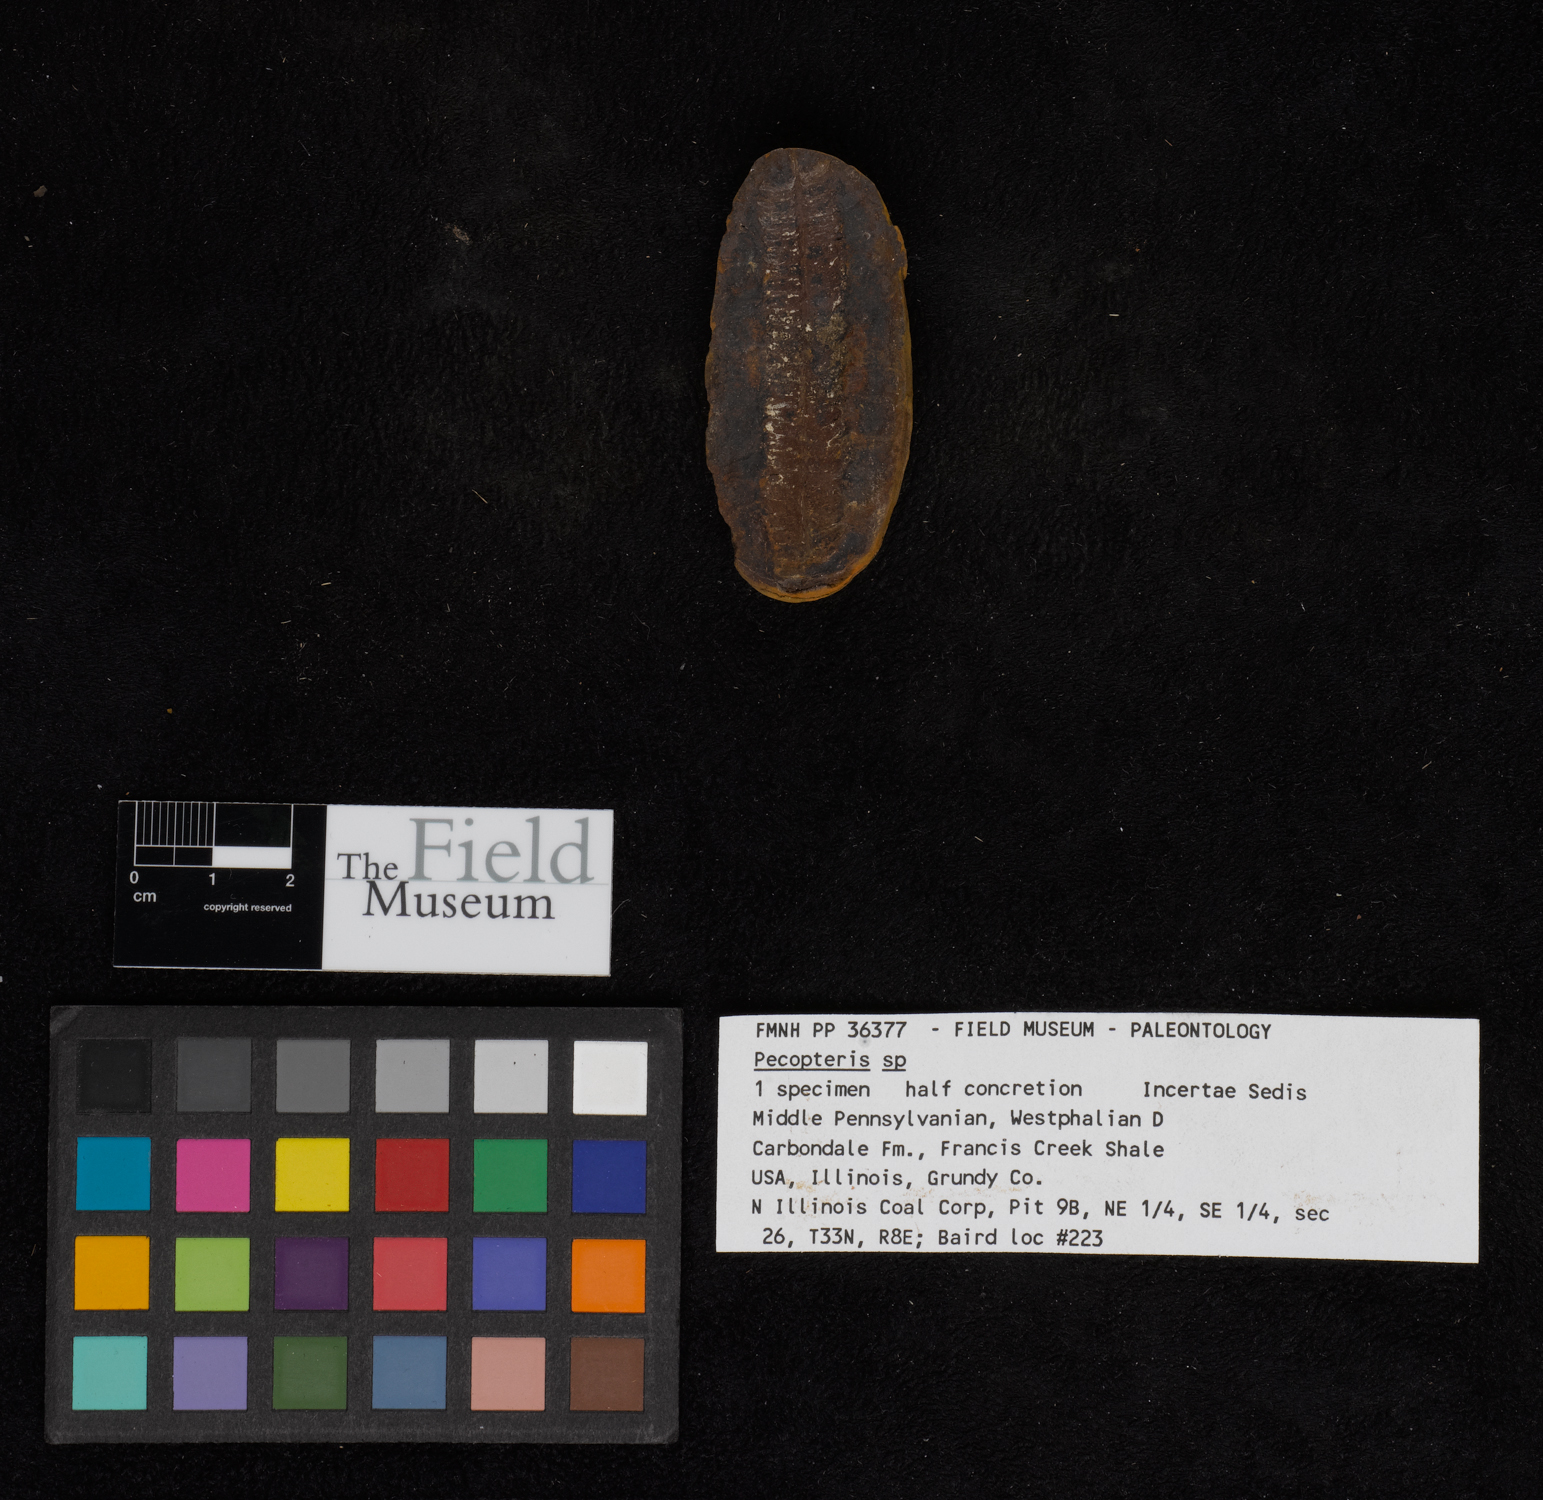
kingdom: Plantae
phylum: Tracheophyta
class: Polypodiopsida
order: Marattiales
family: Asterothecaceae
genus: Pecopteris
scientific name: Pecopteris
